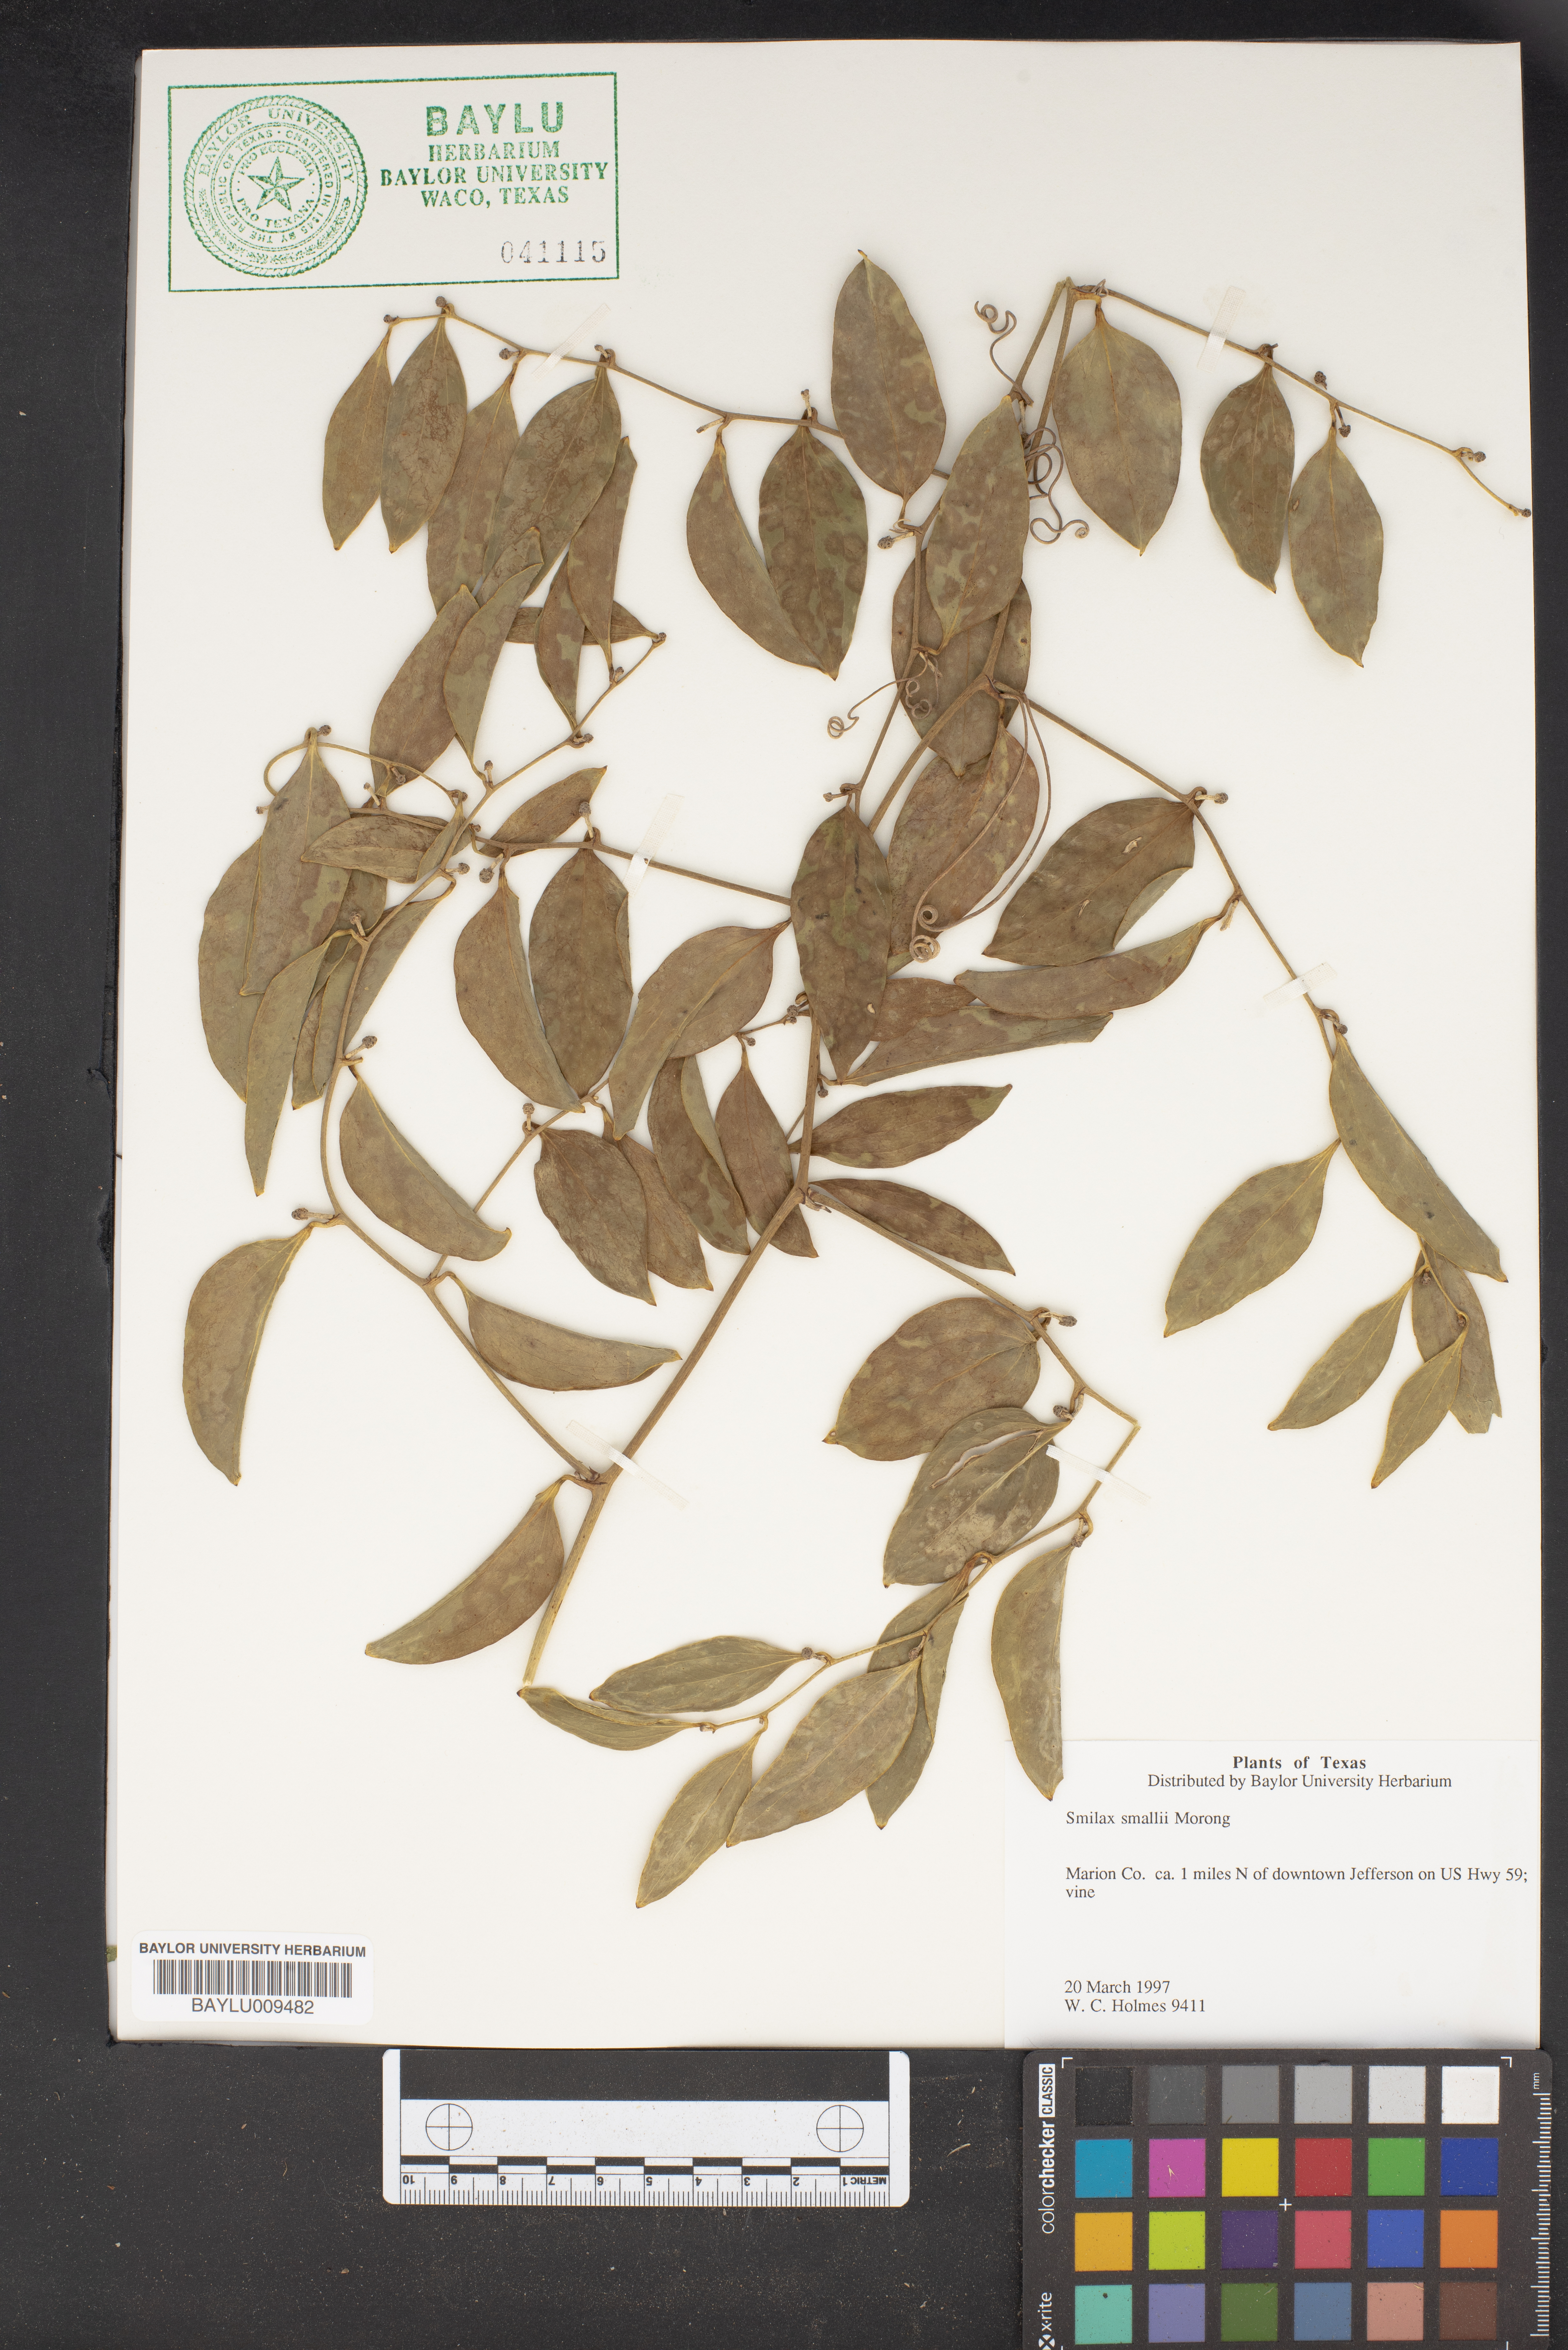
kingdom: Plantae
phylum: Tracheophyta
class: Liliopsida
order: Liliales
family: Smilacaceae
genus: Smilax
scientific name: Smilax maritima
